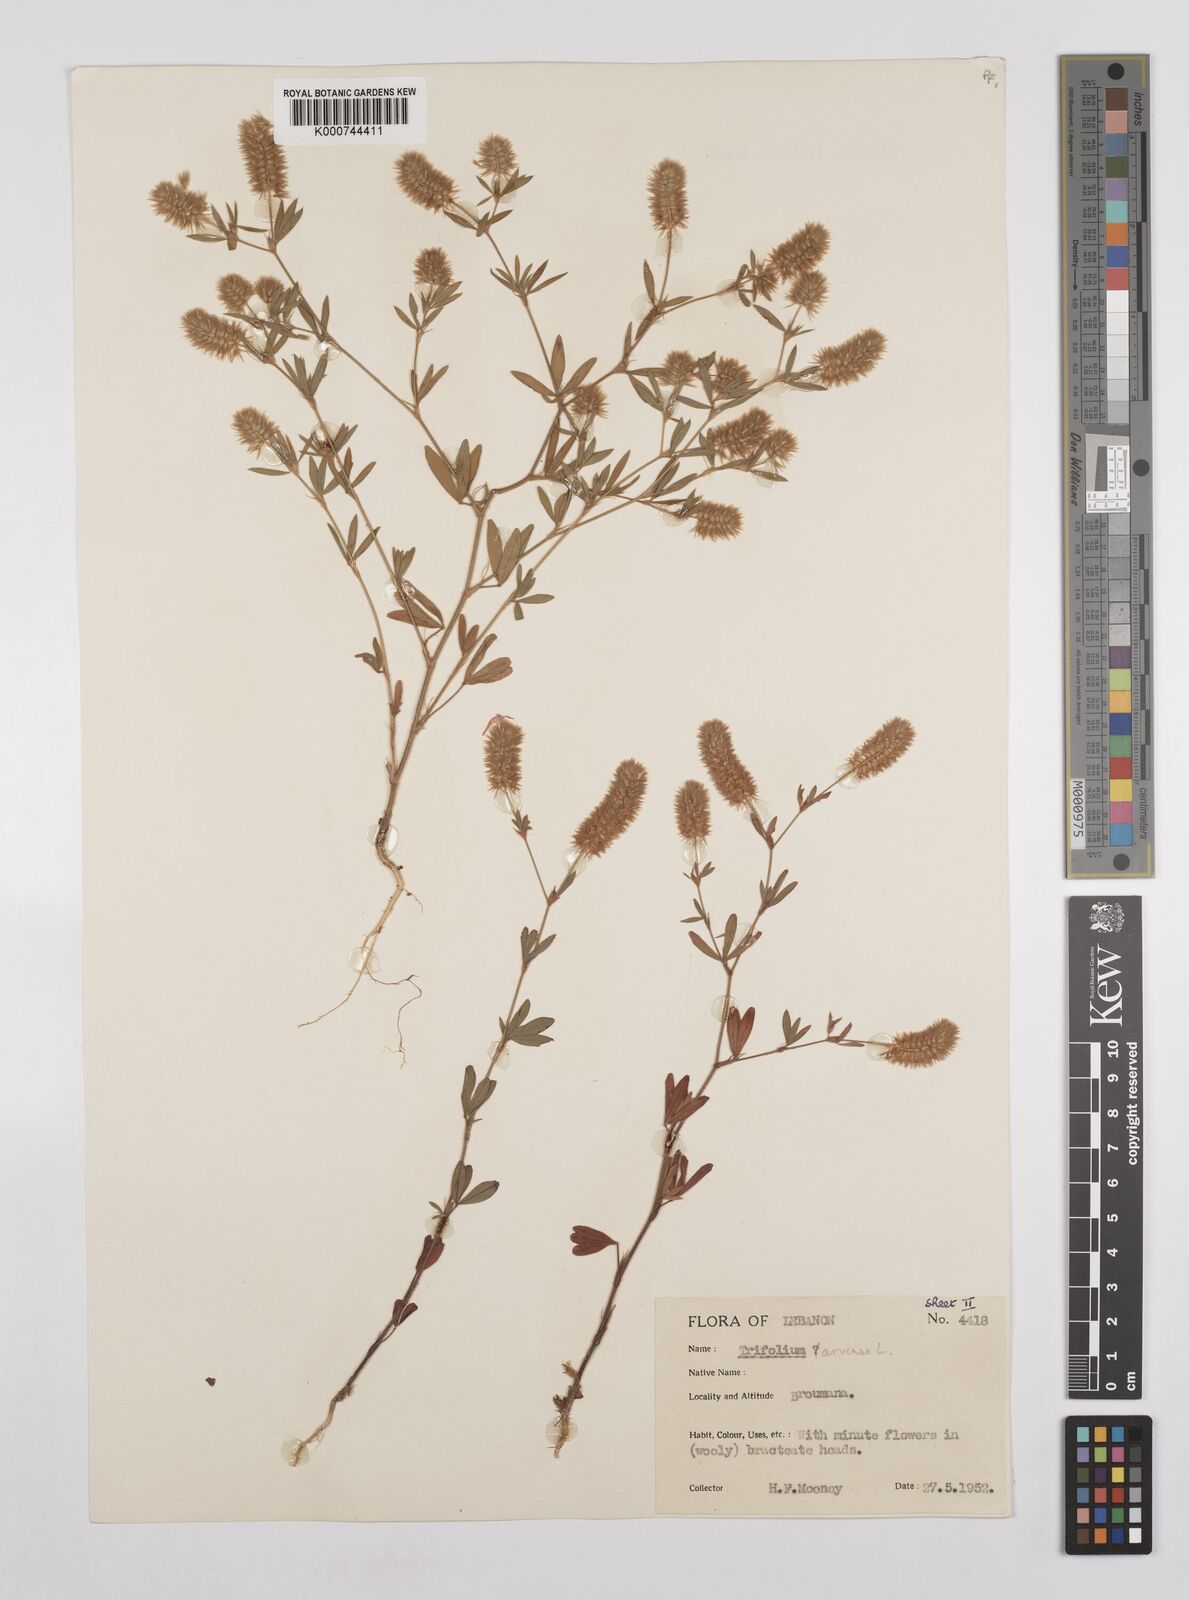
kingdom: Plantae
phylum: Tracheophyta
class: Magnoliopsida
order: Fabales
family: Fabaceae
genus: Trifolium
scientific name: Trifolium arvense
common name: Hare's-foot clover
